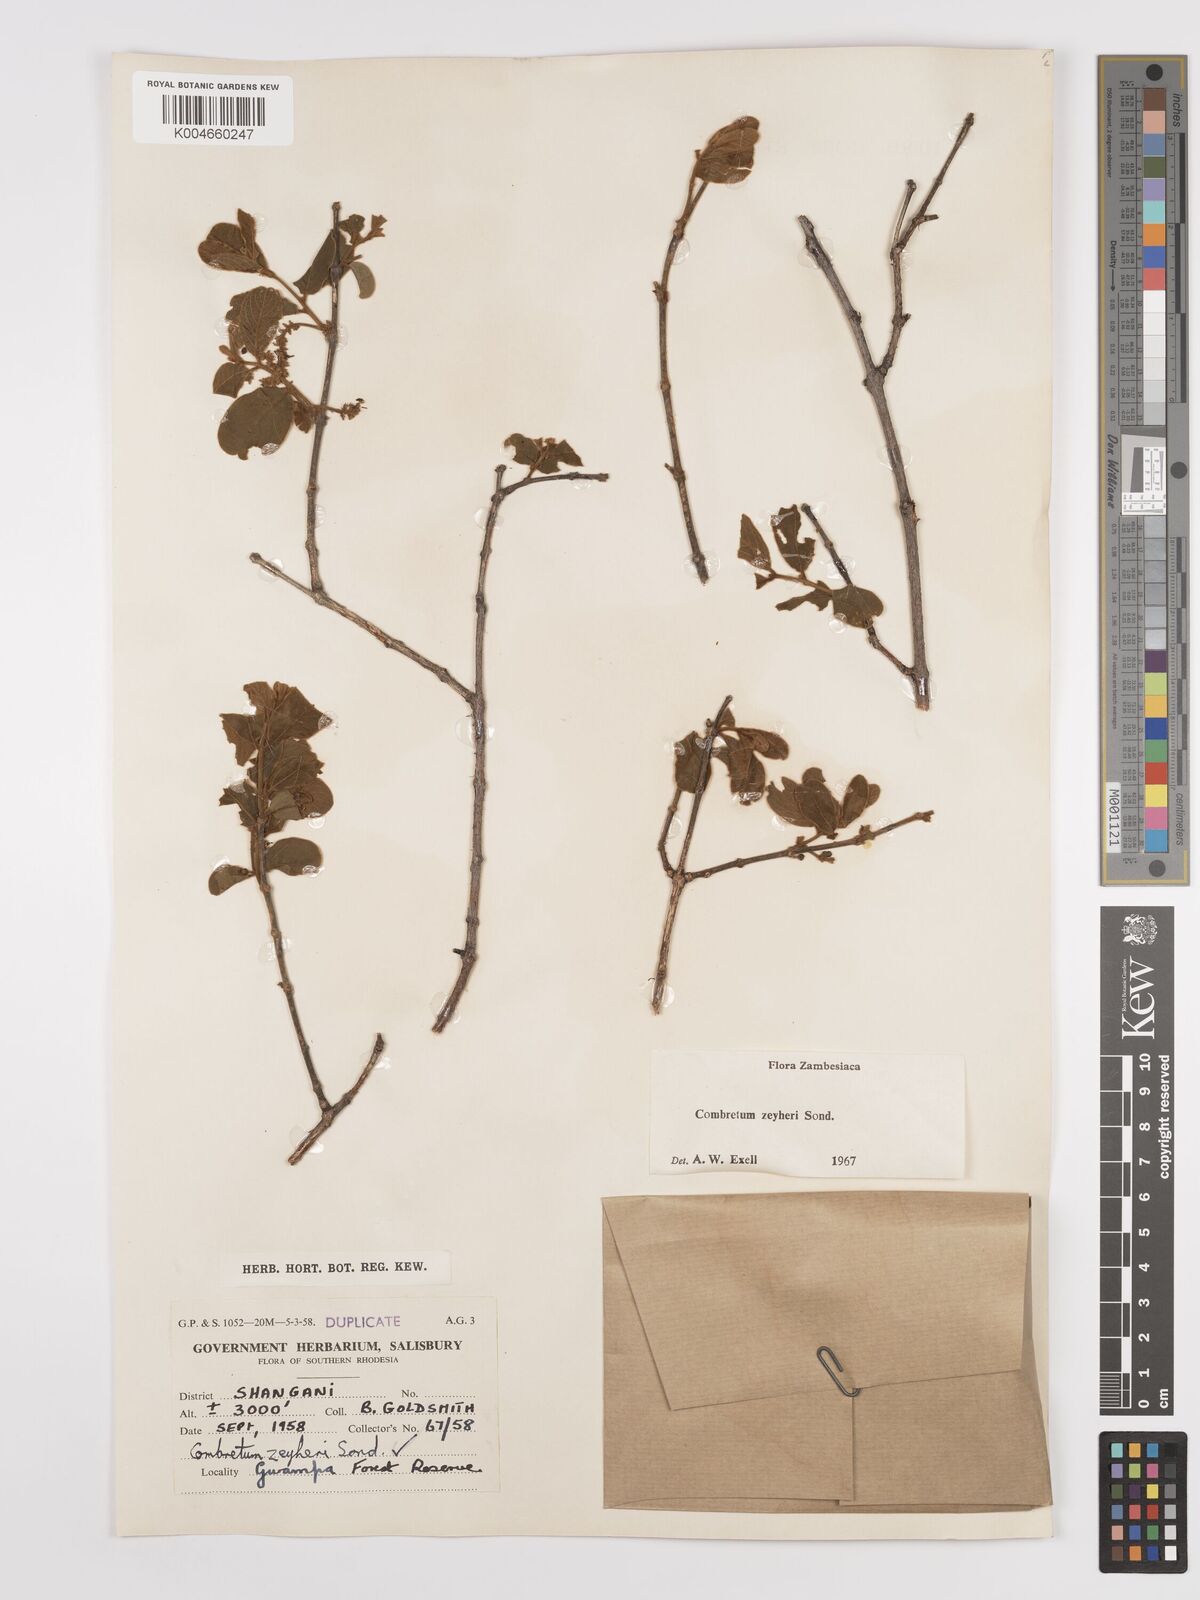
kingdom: Plantae
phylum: Tracheophyta
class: Magnoliopsida
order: Myrtales
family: Combretaceae
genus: Combretum
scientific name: Combretum zeyheri
